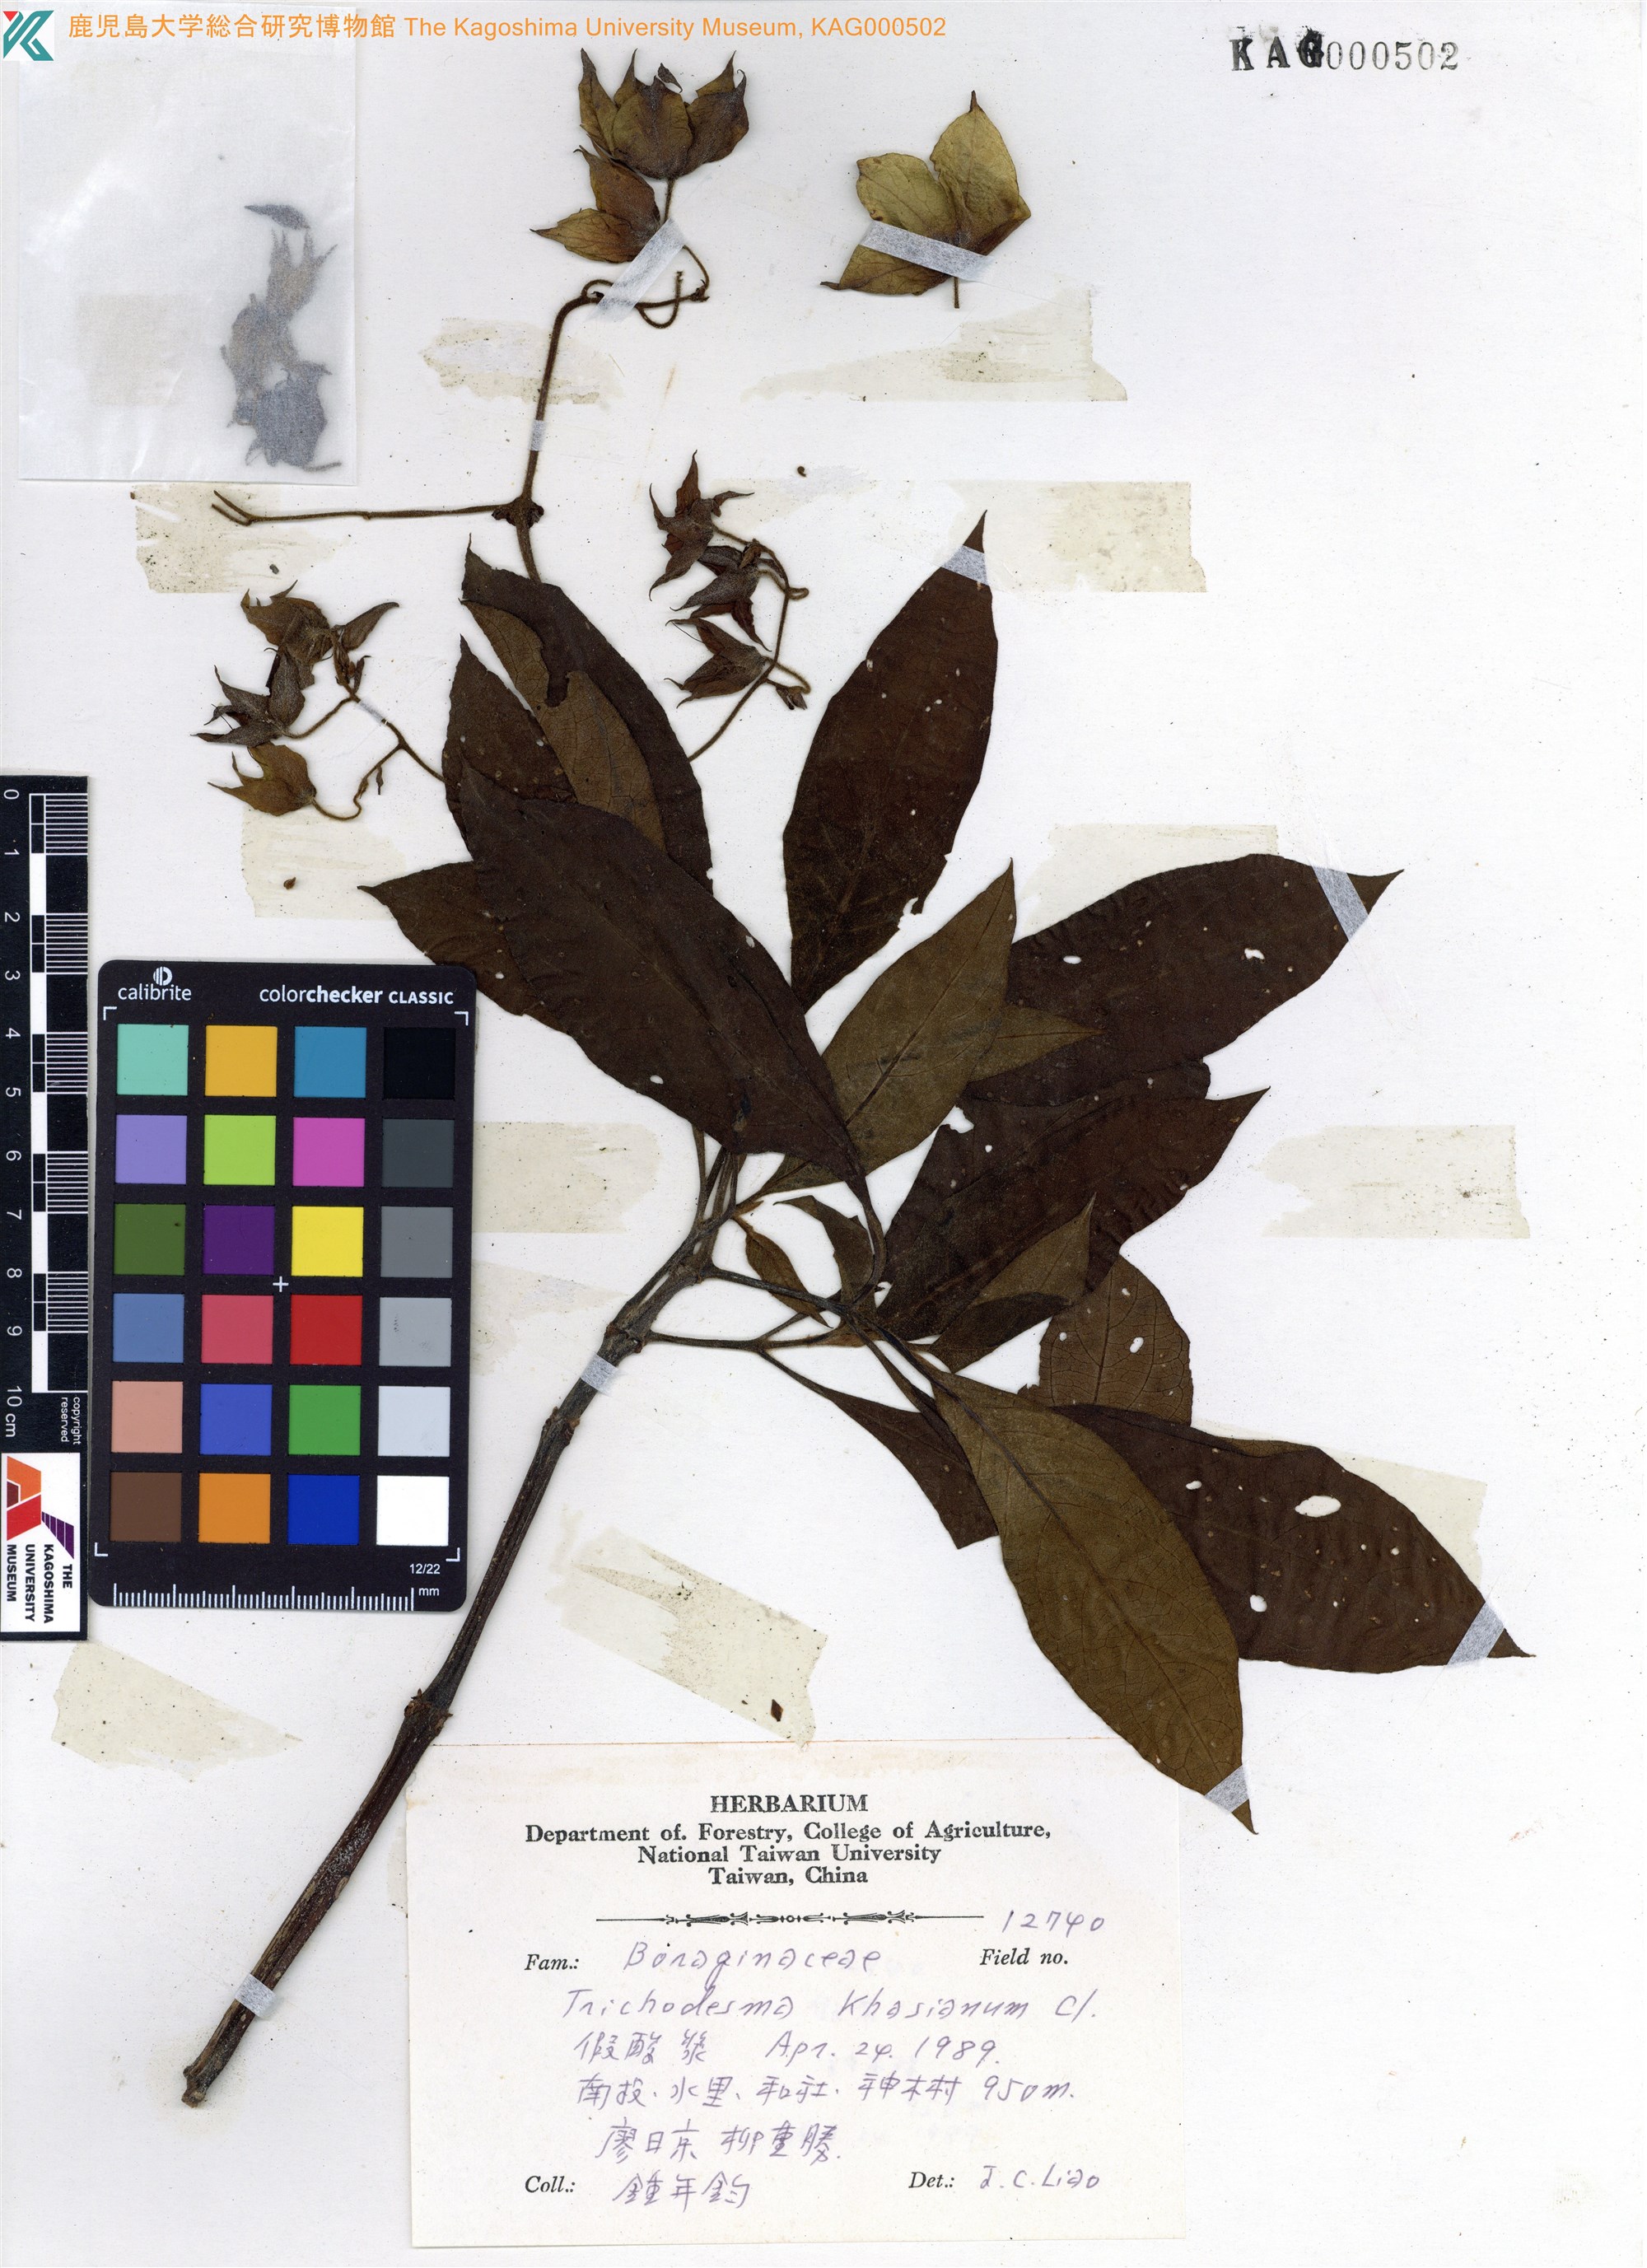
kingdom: Plantae
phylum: Tracheophyta
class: Magnoliopsida
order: Boraginales
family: Boraginaceae
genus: Trichodesma
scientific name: Trichodesma khasianum
